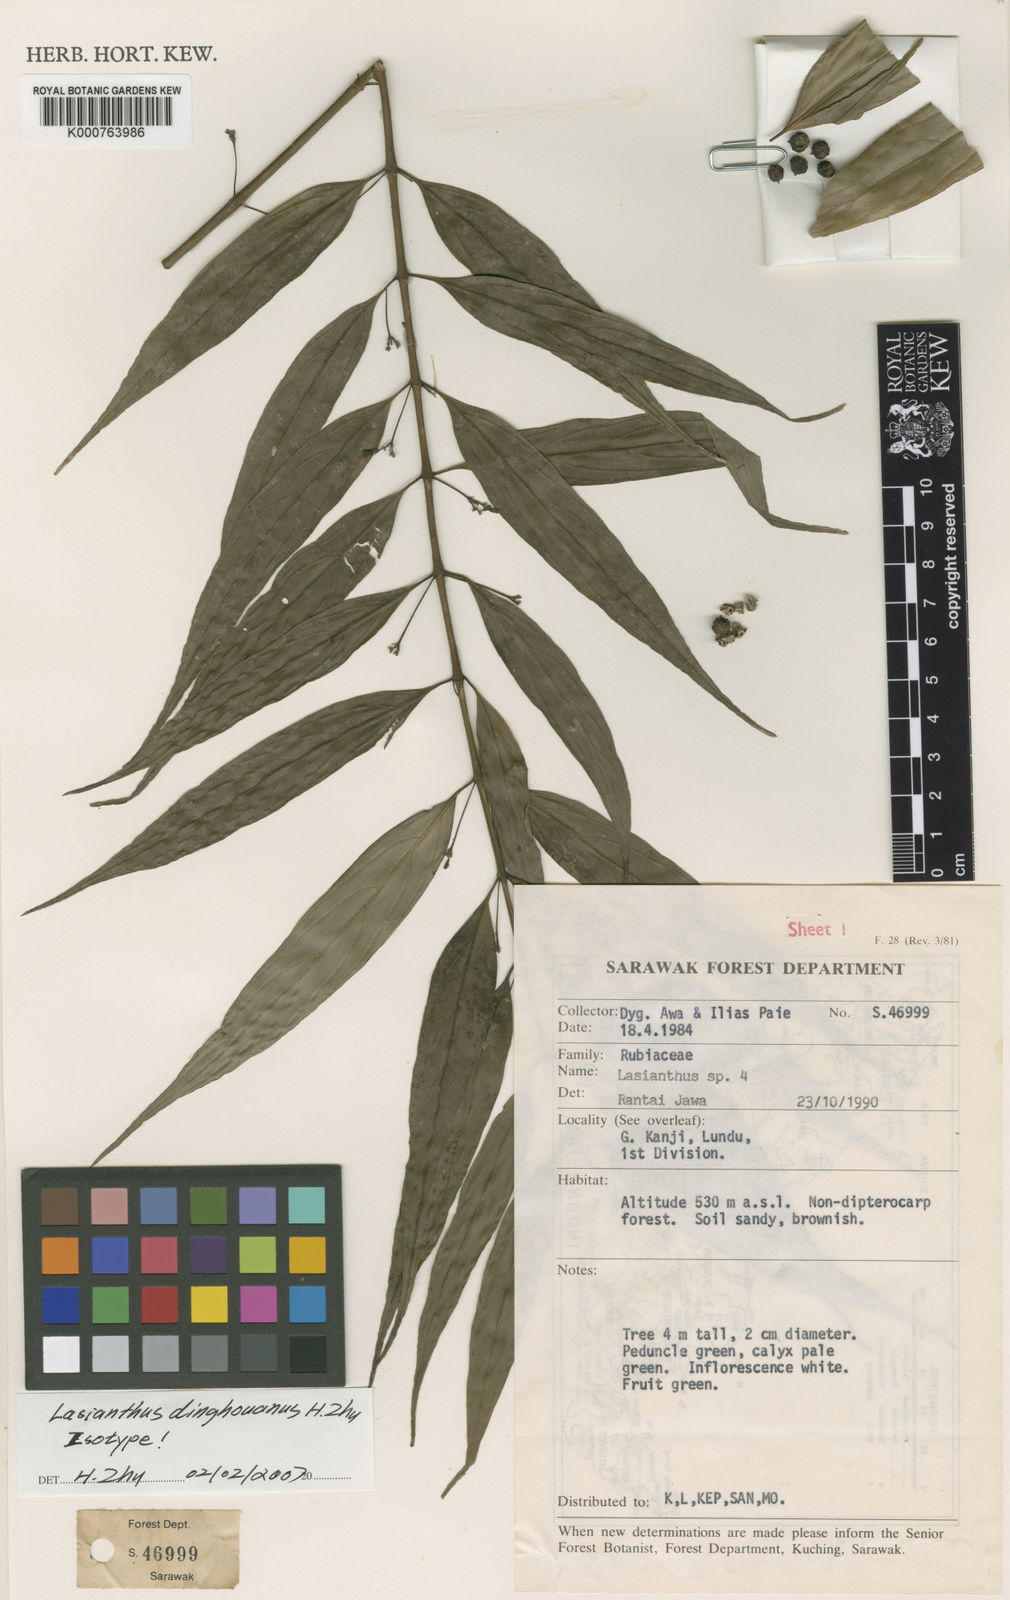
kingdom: Plantae
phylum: Tracheophyta
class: Magnoliopsida
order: Gentianales
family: Rubiaceae
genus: Lasianthus
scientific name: Lasianthus dinghouanus
